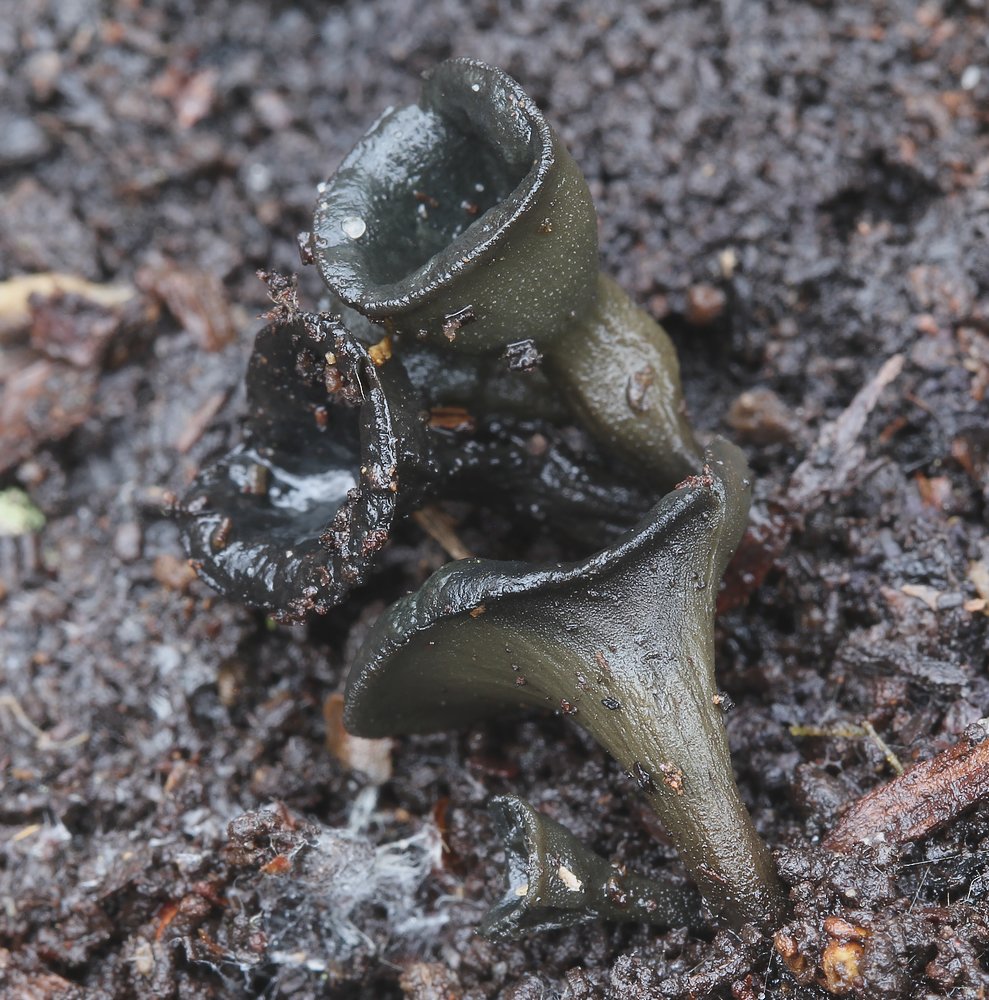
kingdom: Fungi
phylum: Ascomycota
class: Leotiomycetes
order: Helotiales
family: Bulgariaceae
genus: Holwaya
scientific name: Holwaya mucida
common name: lindeskive
